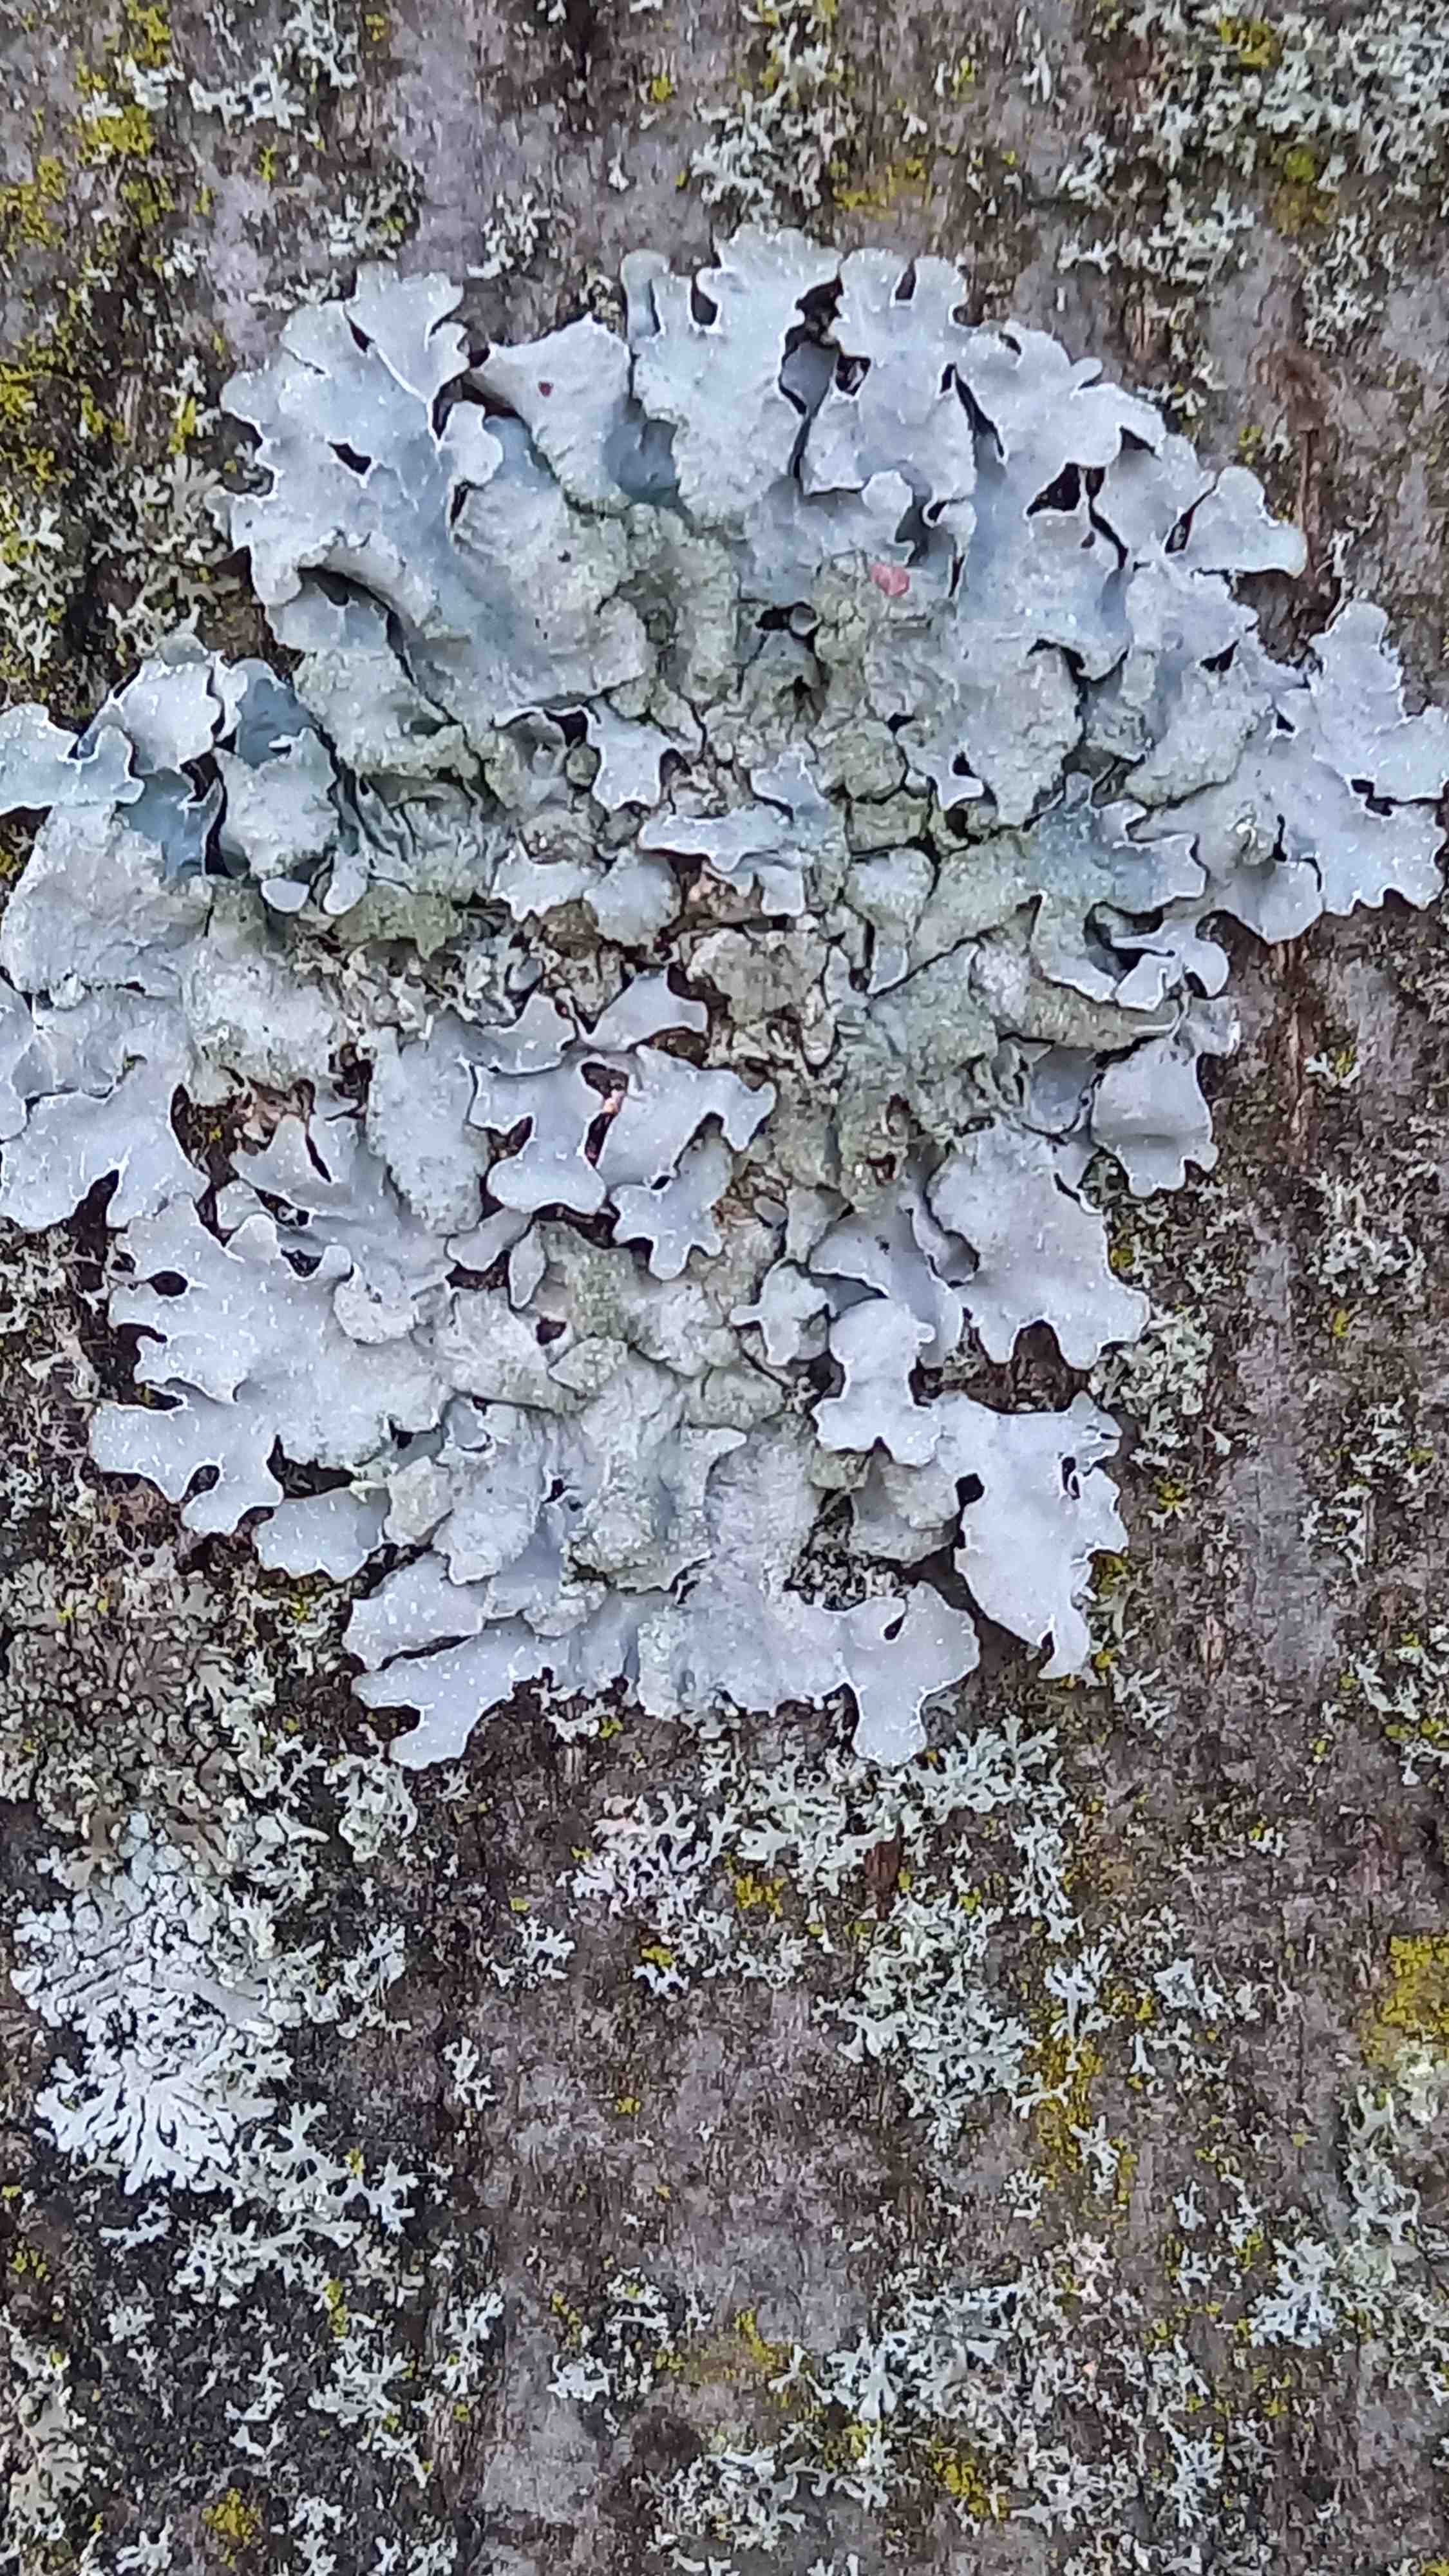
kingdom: Fungi
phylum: Ascomycota
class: Lecanoromycetes
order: Lecanorales
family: Parmeliaceae
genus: Parmelia
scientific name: Parmelia sulcata
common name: rynket skållav
